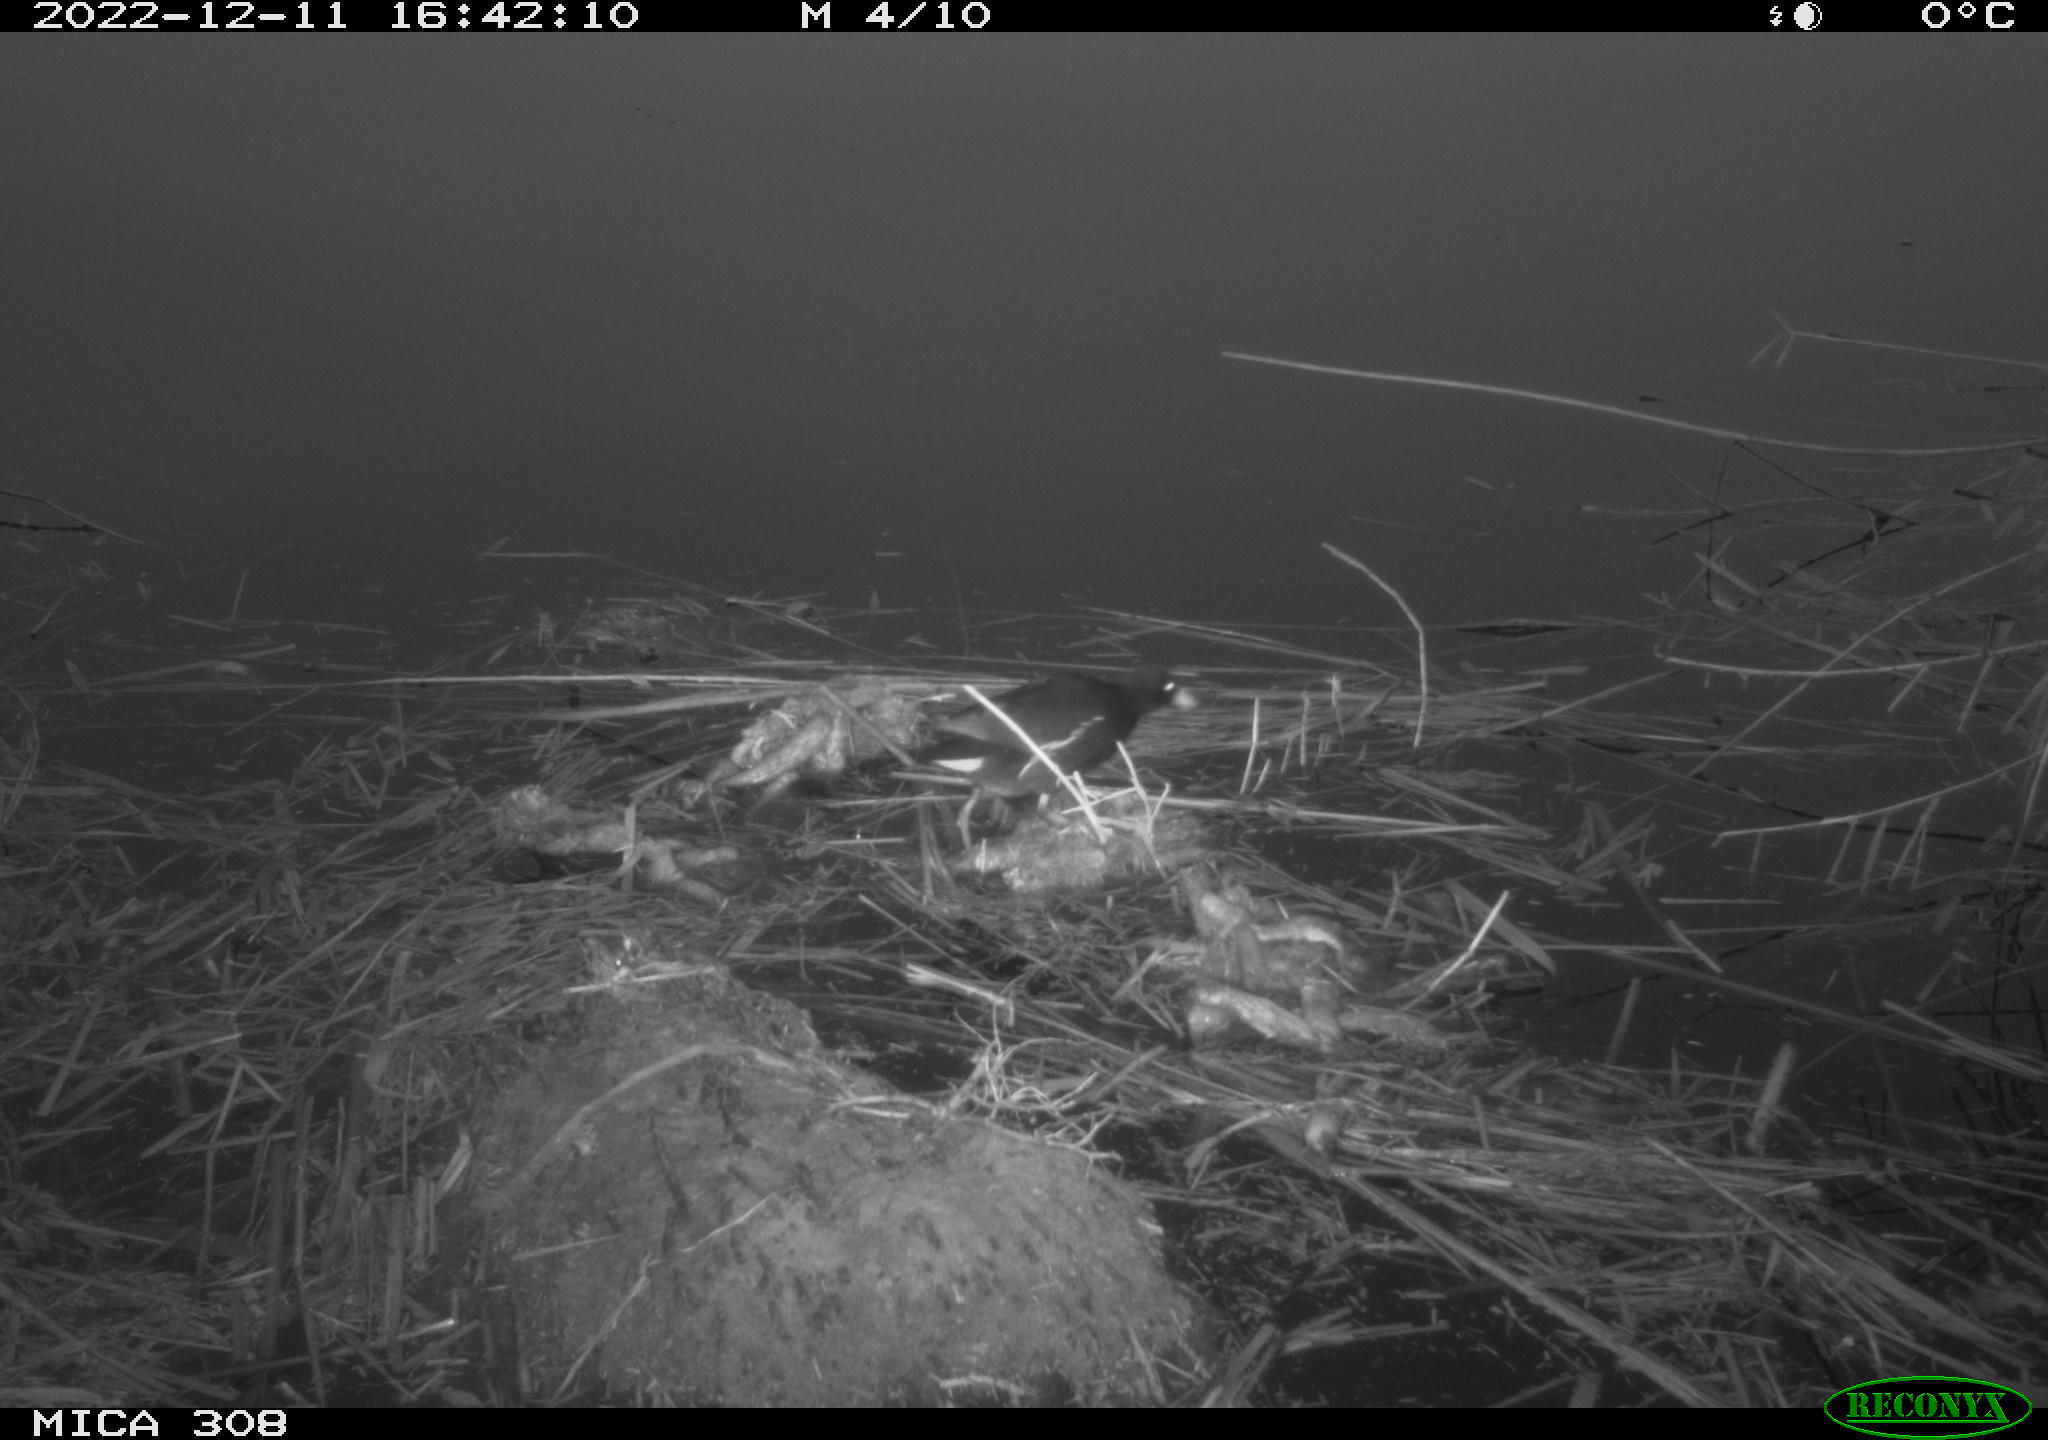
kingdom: Animalia
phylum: Chordata
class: Aves
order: Gruiformes
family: Rallidae
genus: Gallinula
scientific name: Gallinula chloropus
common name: Common moorhen
